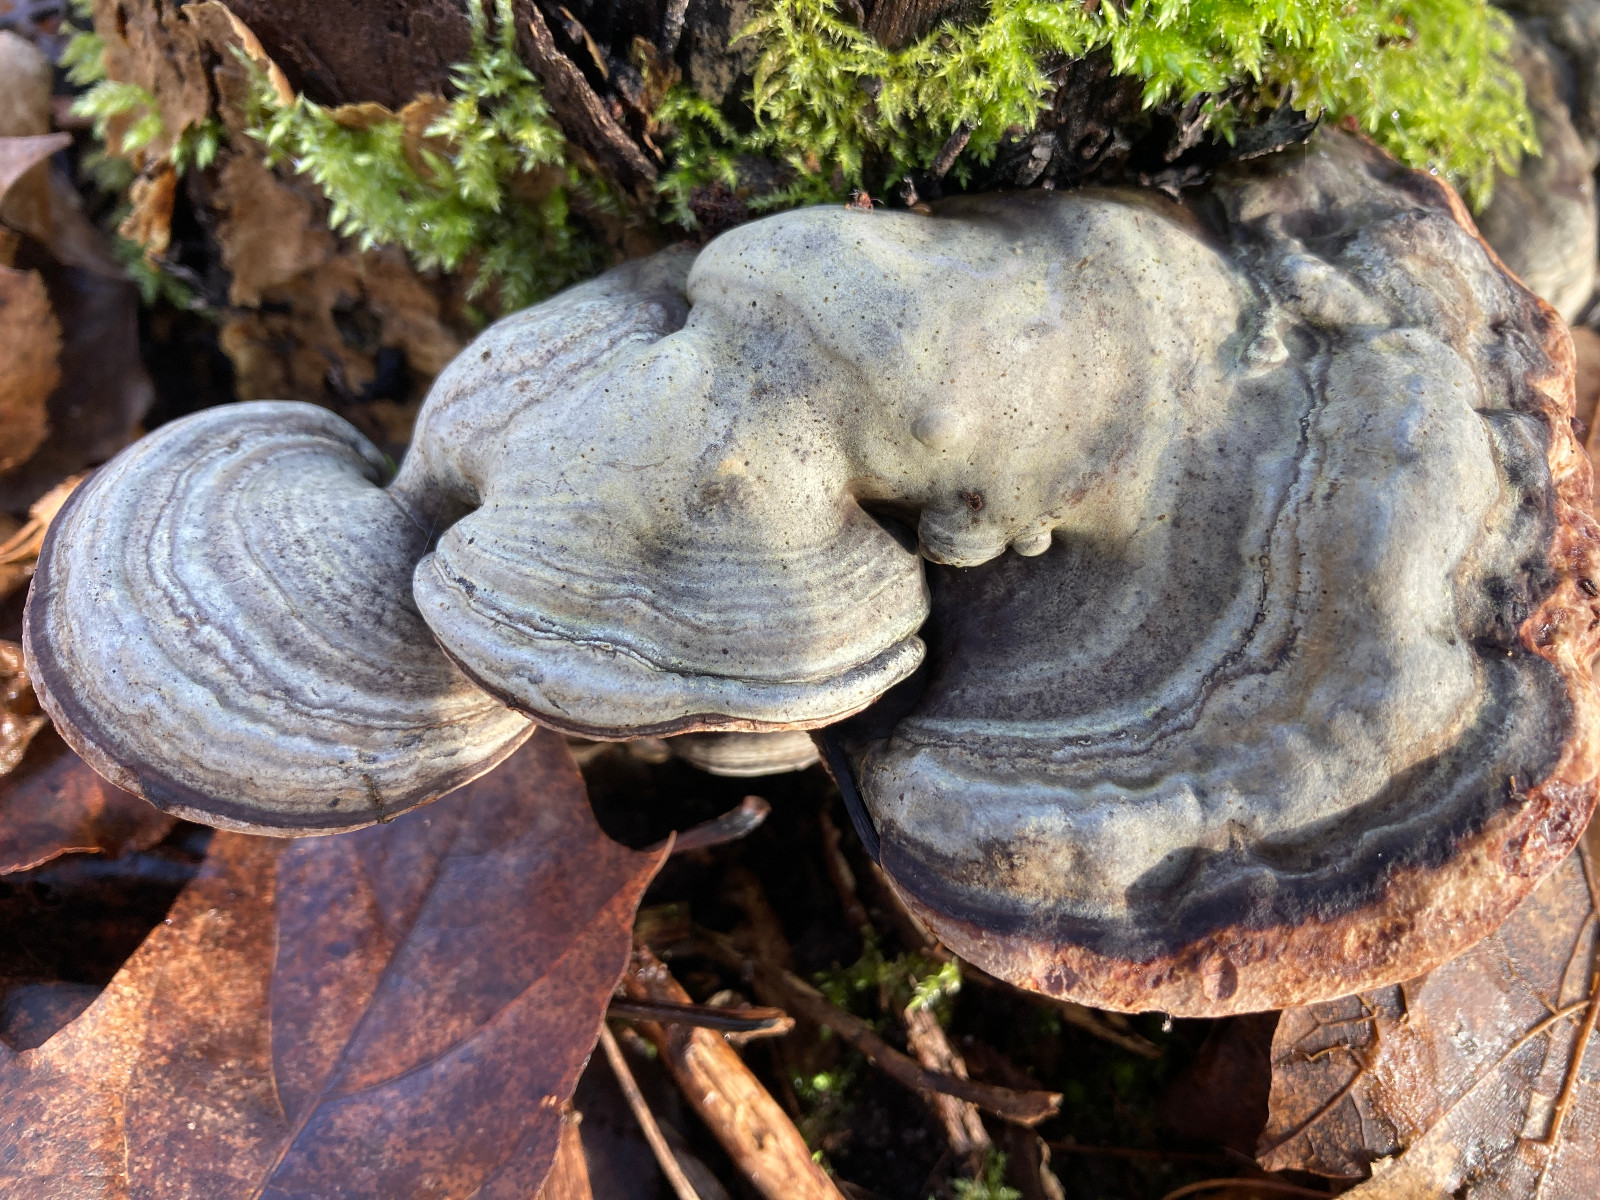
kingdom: Fungi
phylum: Basidiomycota
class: Agaricomycetes
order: Polyporales
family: Polyporaceae
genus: Fomes
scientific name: Fomes fomentarius
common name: tøndersvamp
